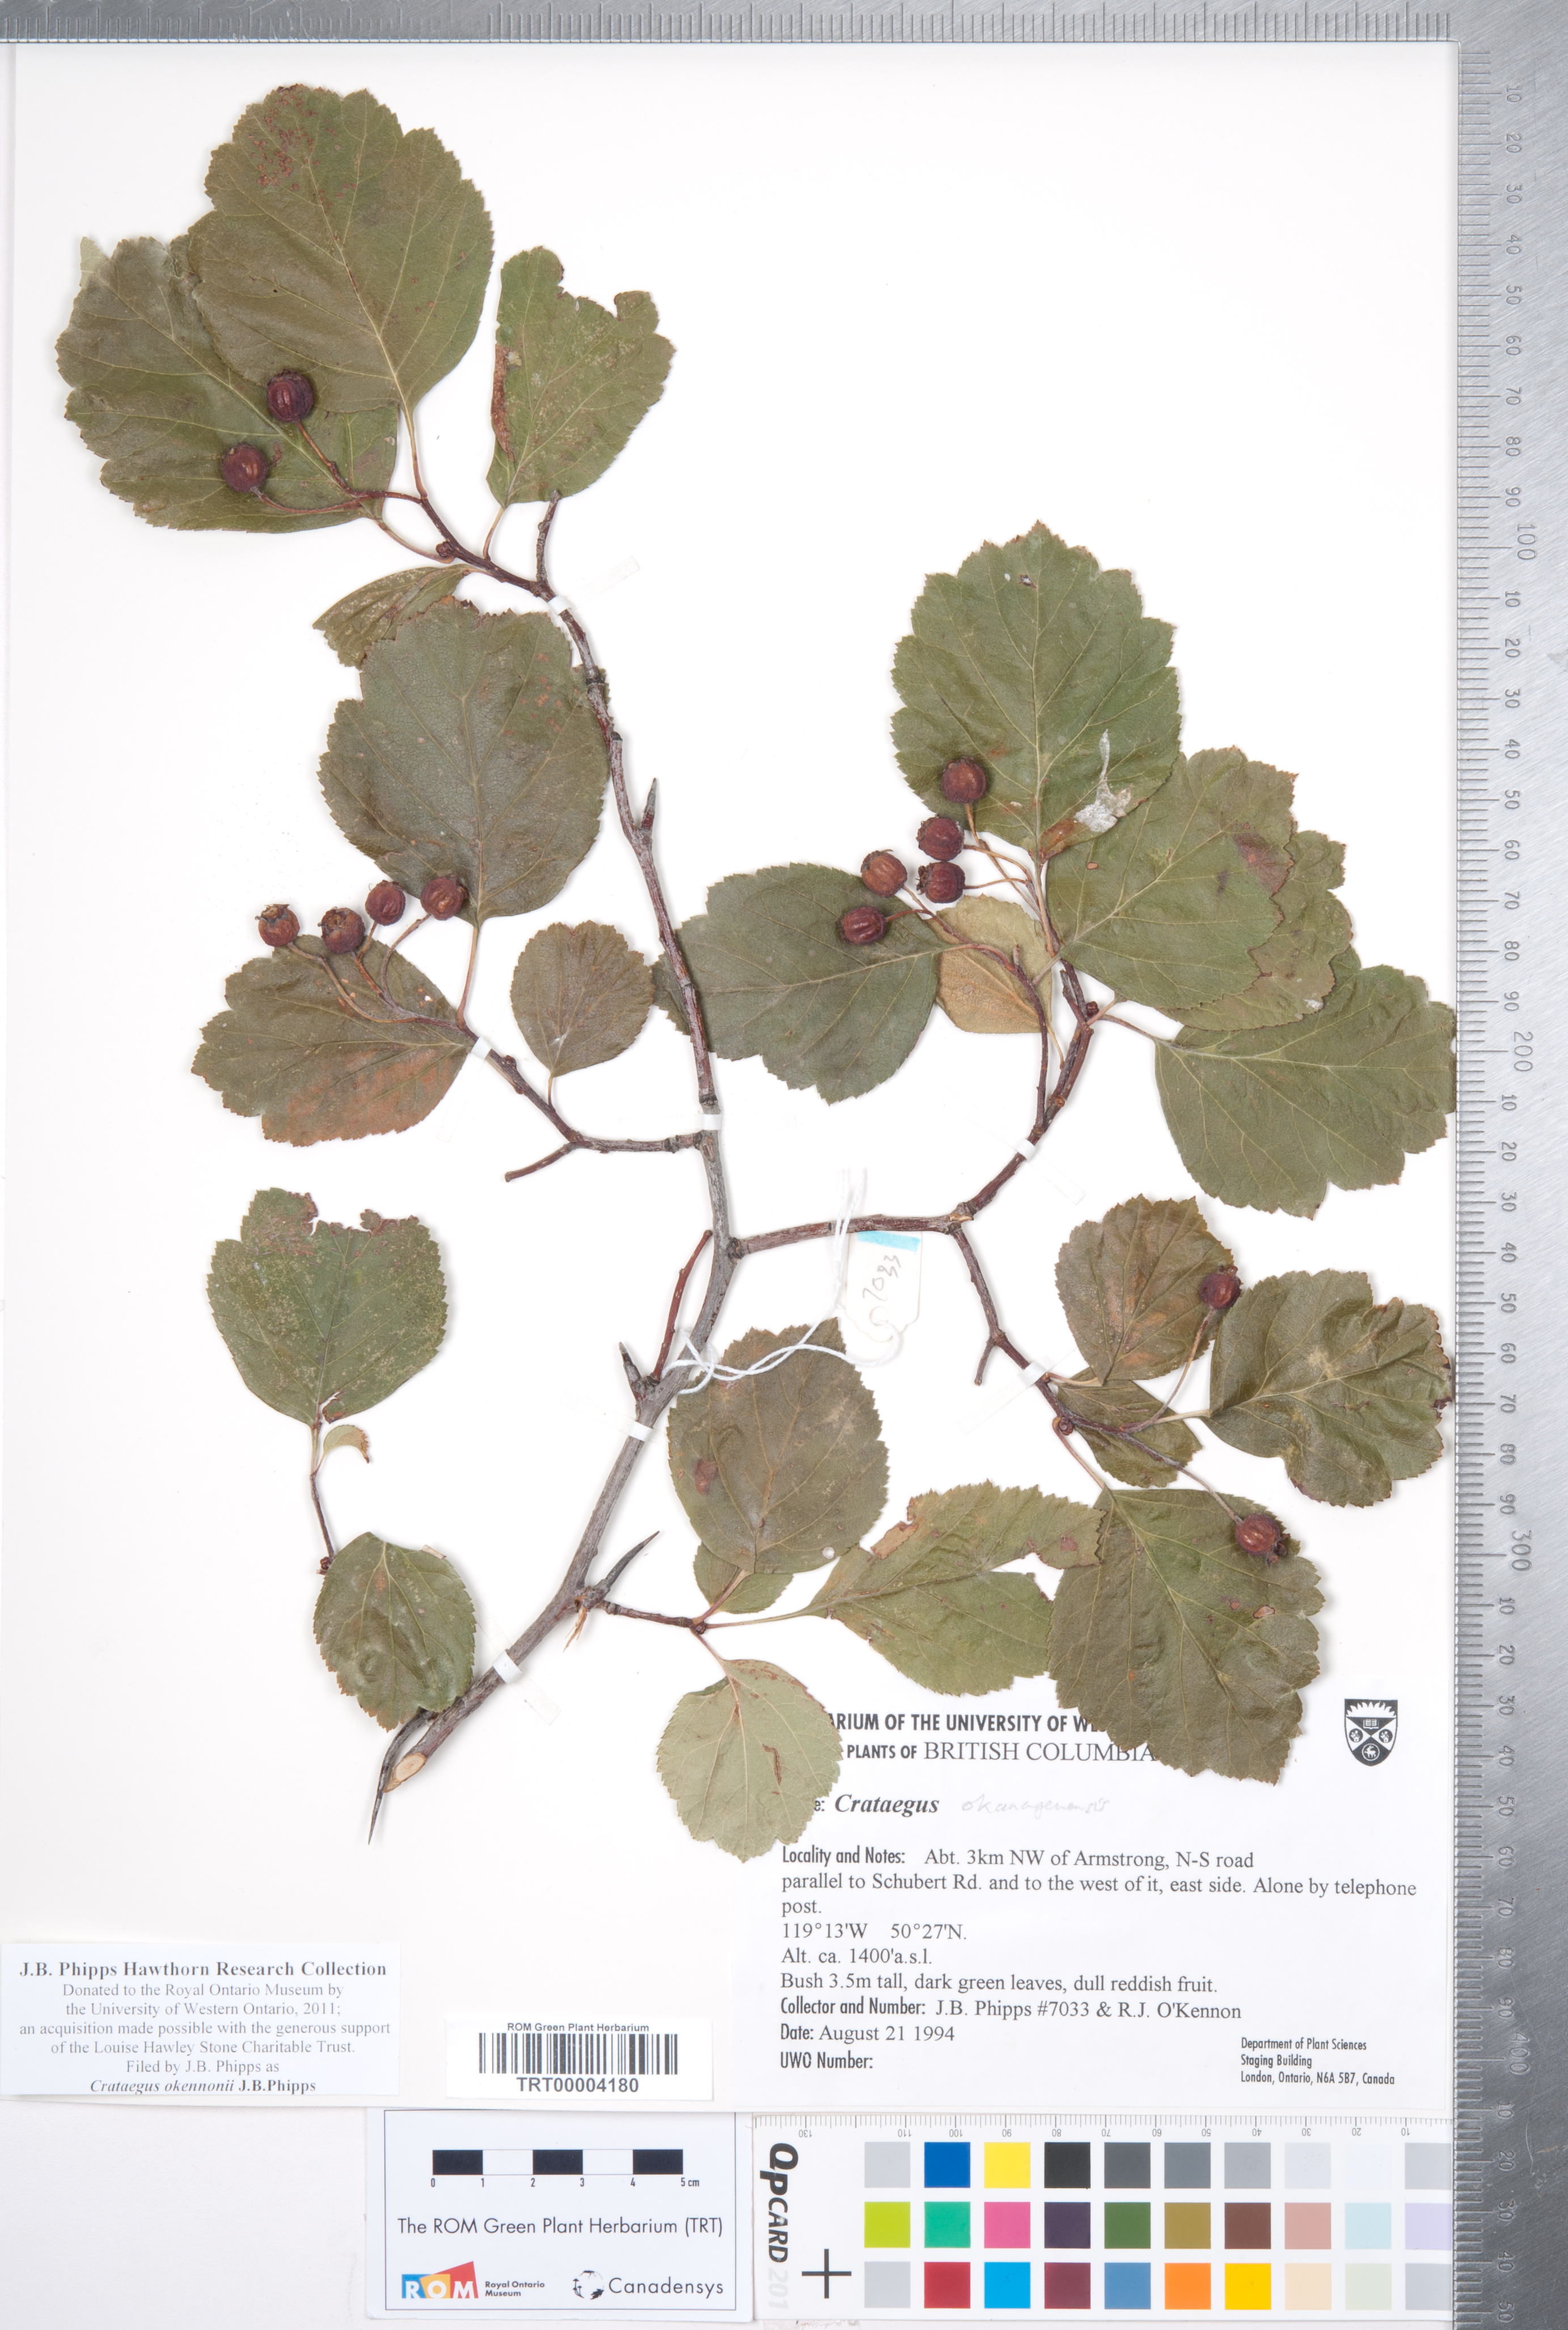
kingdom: Plantae
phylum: Tracheophyta
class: Magnoliopsida
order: Rosales
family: Rosaceae
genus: Crataegus
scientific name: Crataegus okennonii
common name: O'kennon's hawthorn
